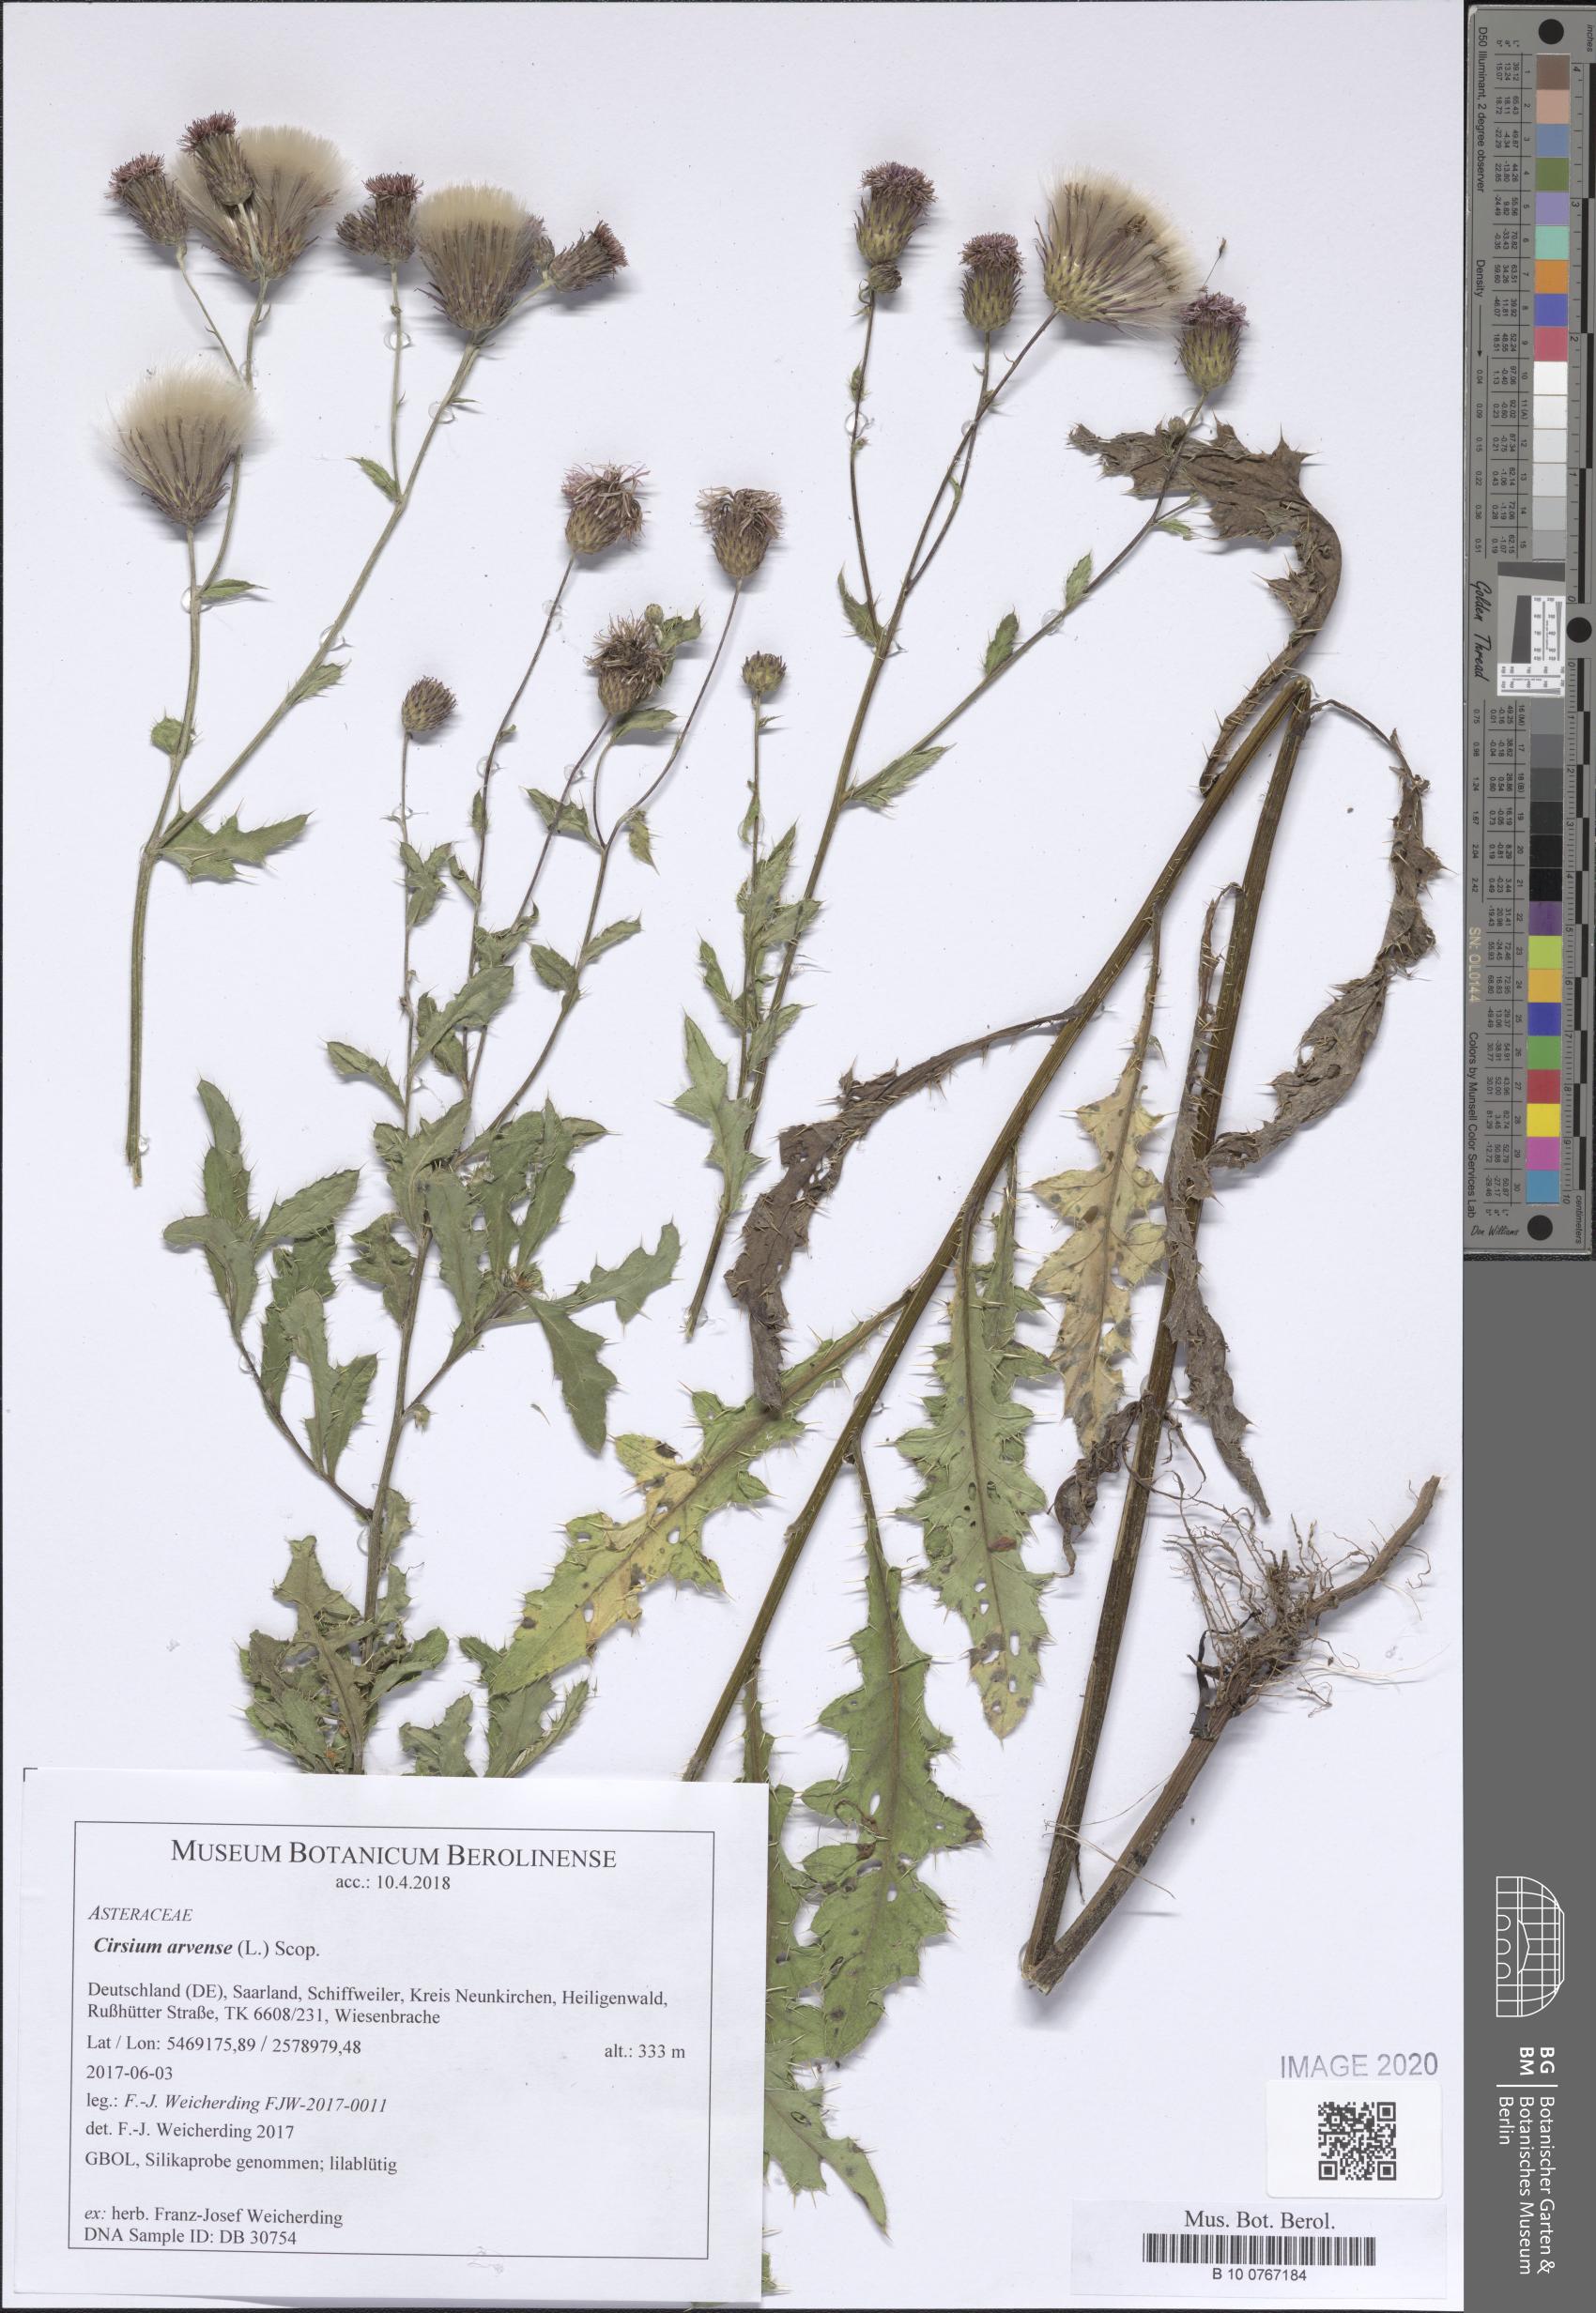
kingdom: Plantae
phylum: Tracheophyta
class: Magnoliopsida
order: Asterales
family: Asteraceae
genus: Cirsium
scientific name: Cirsium arvense
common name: Creeping thistle
